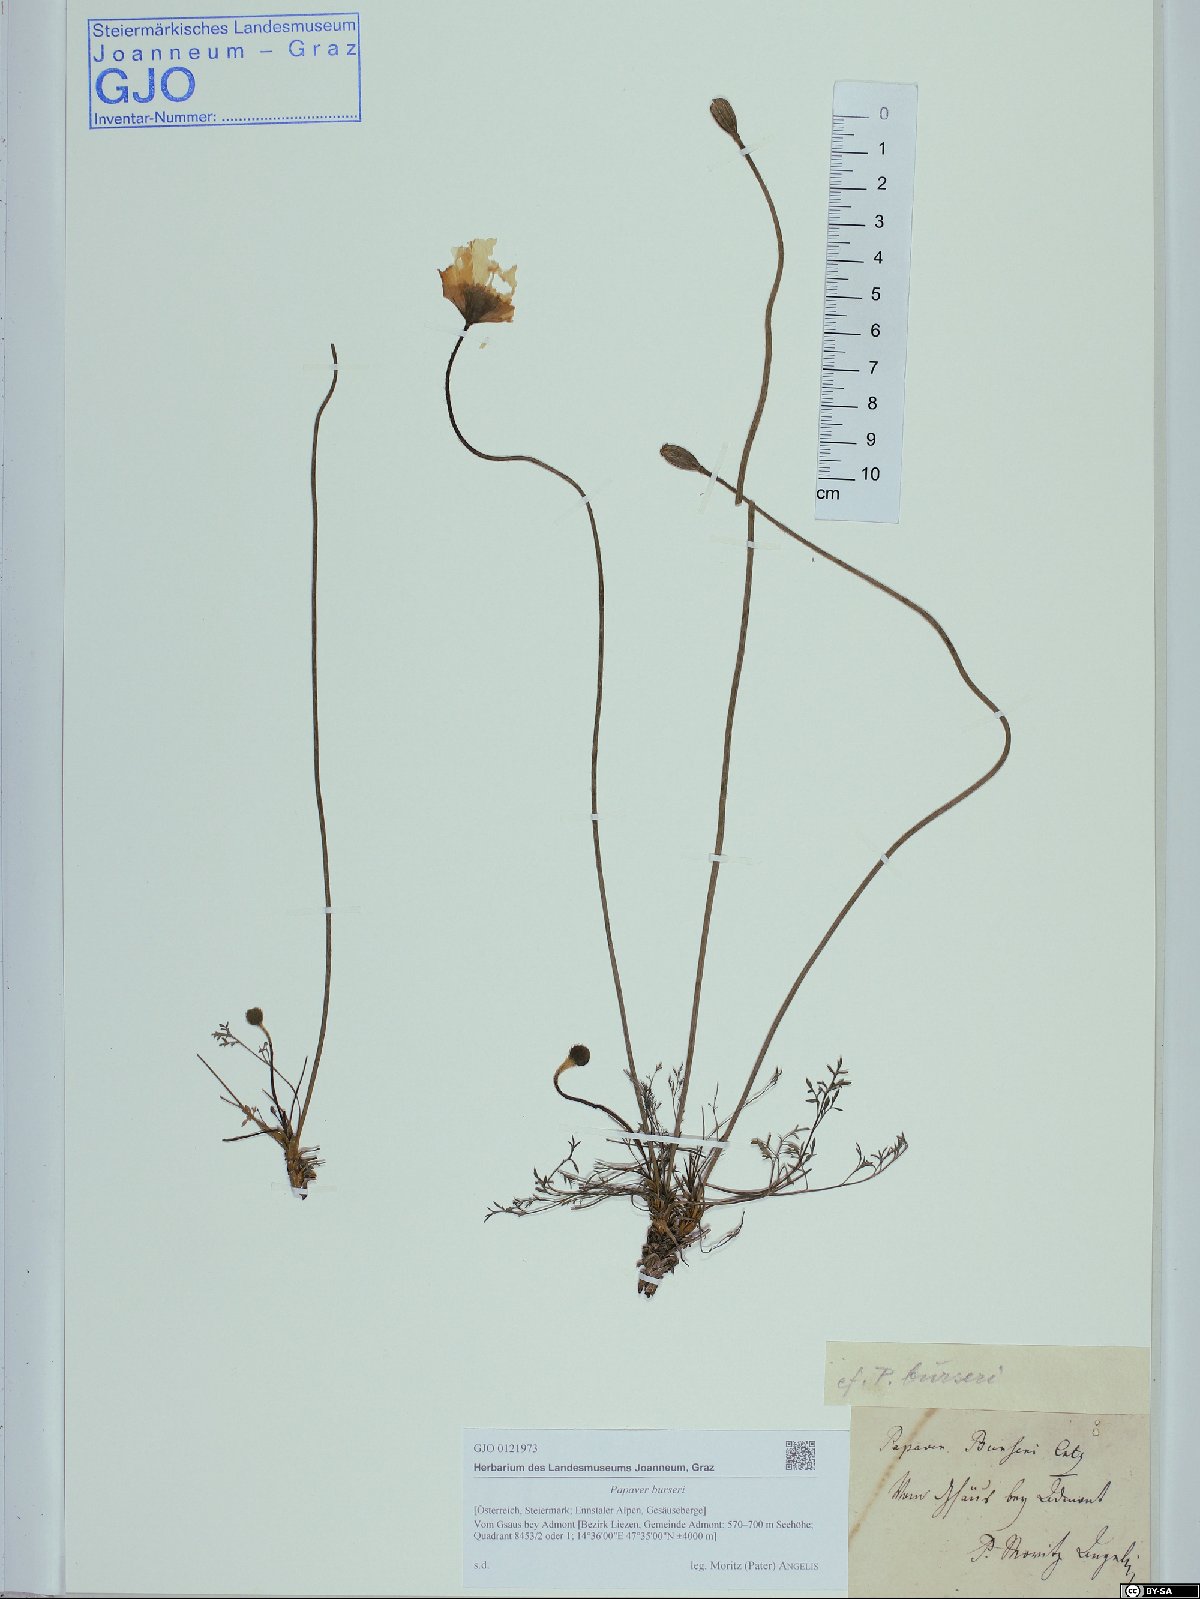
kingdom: Plantae
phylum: Tracheophyta
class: Magnoliopsida
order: Ranunculales
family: Papaveraceae
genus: Papaver
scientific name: Papaver alpinum
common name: Austrian poppy
